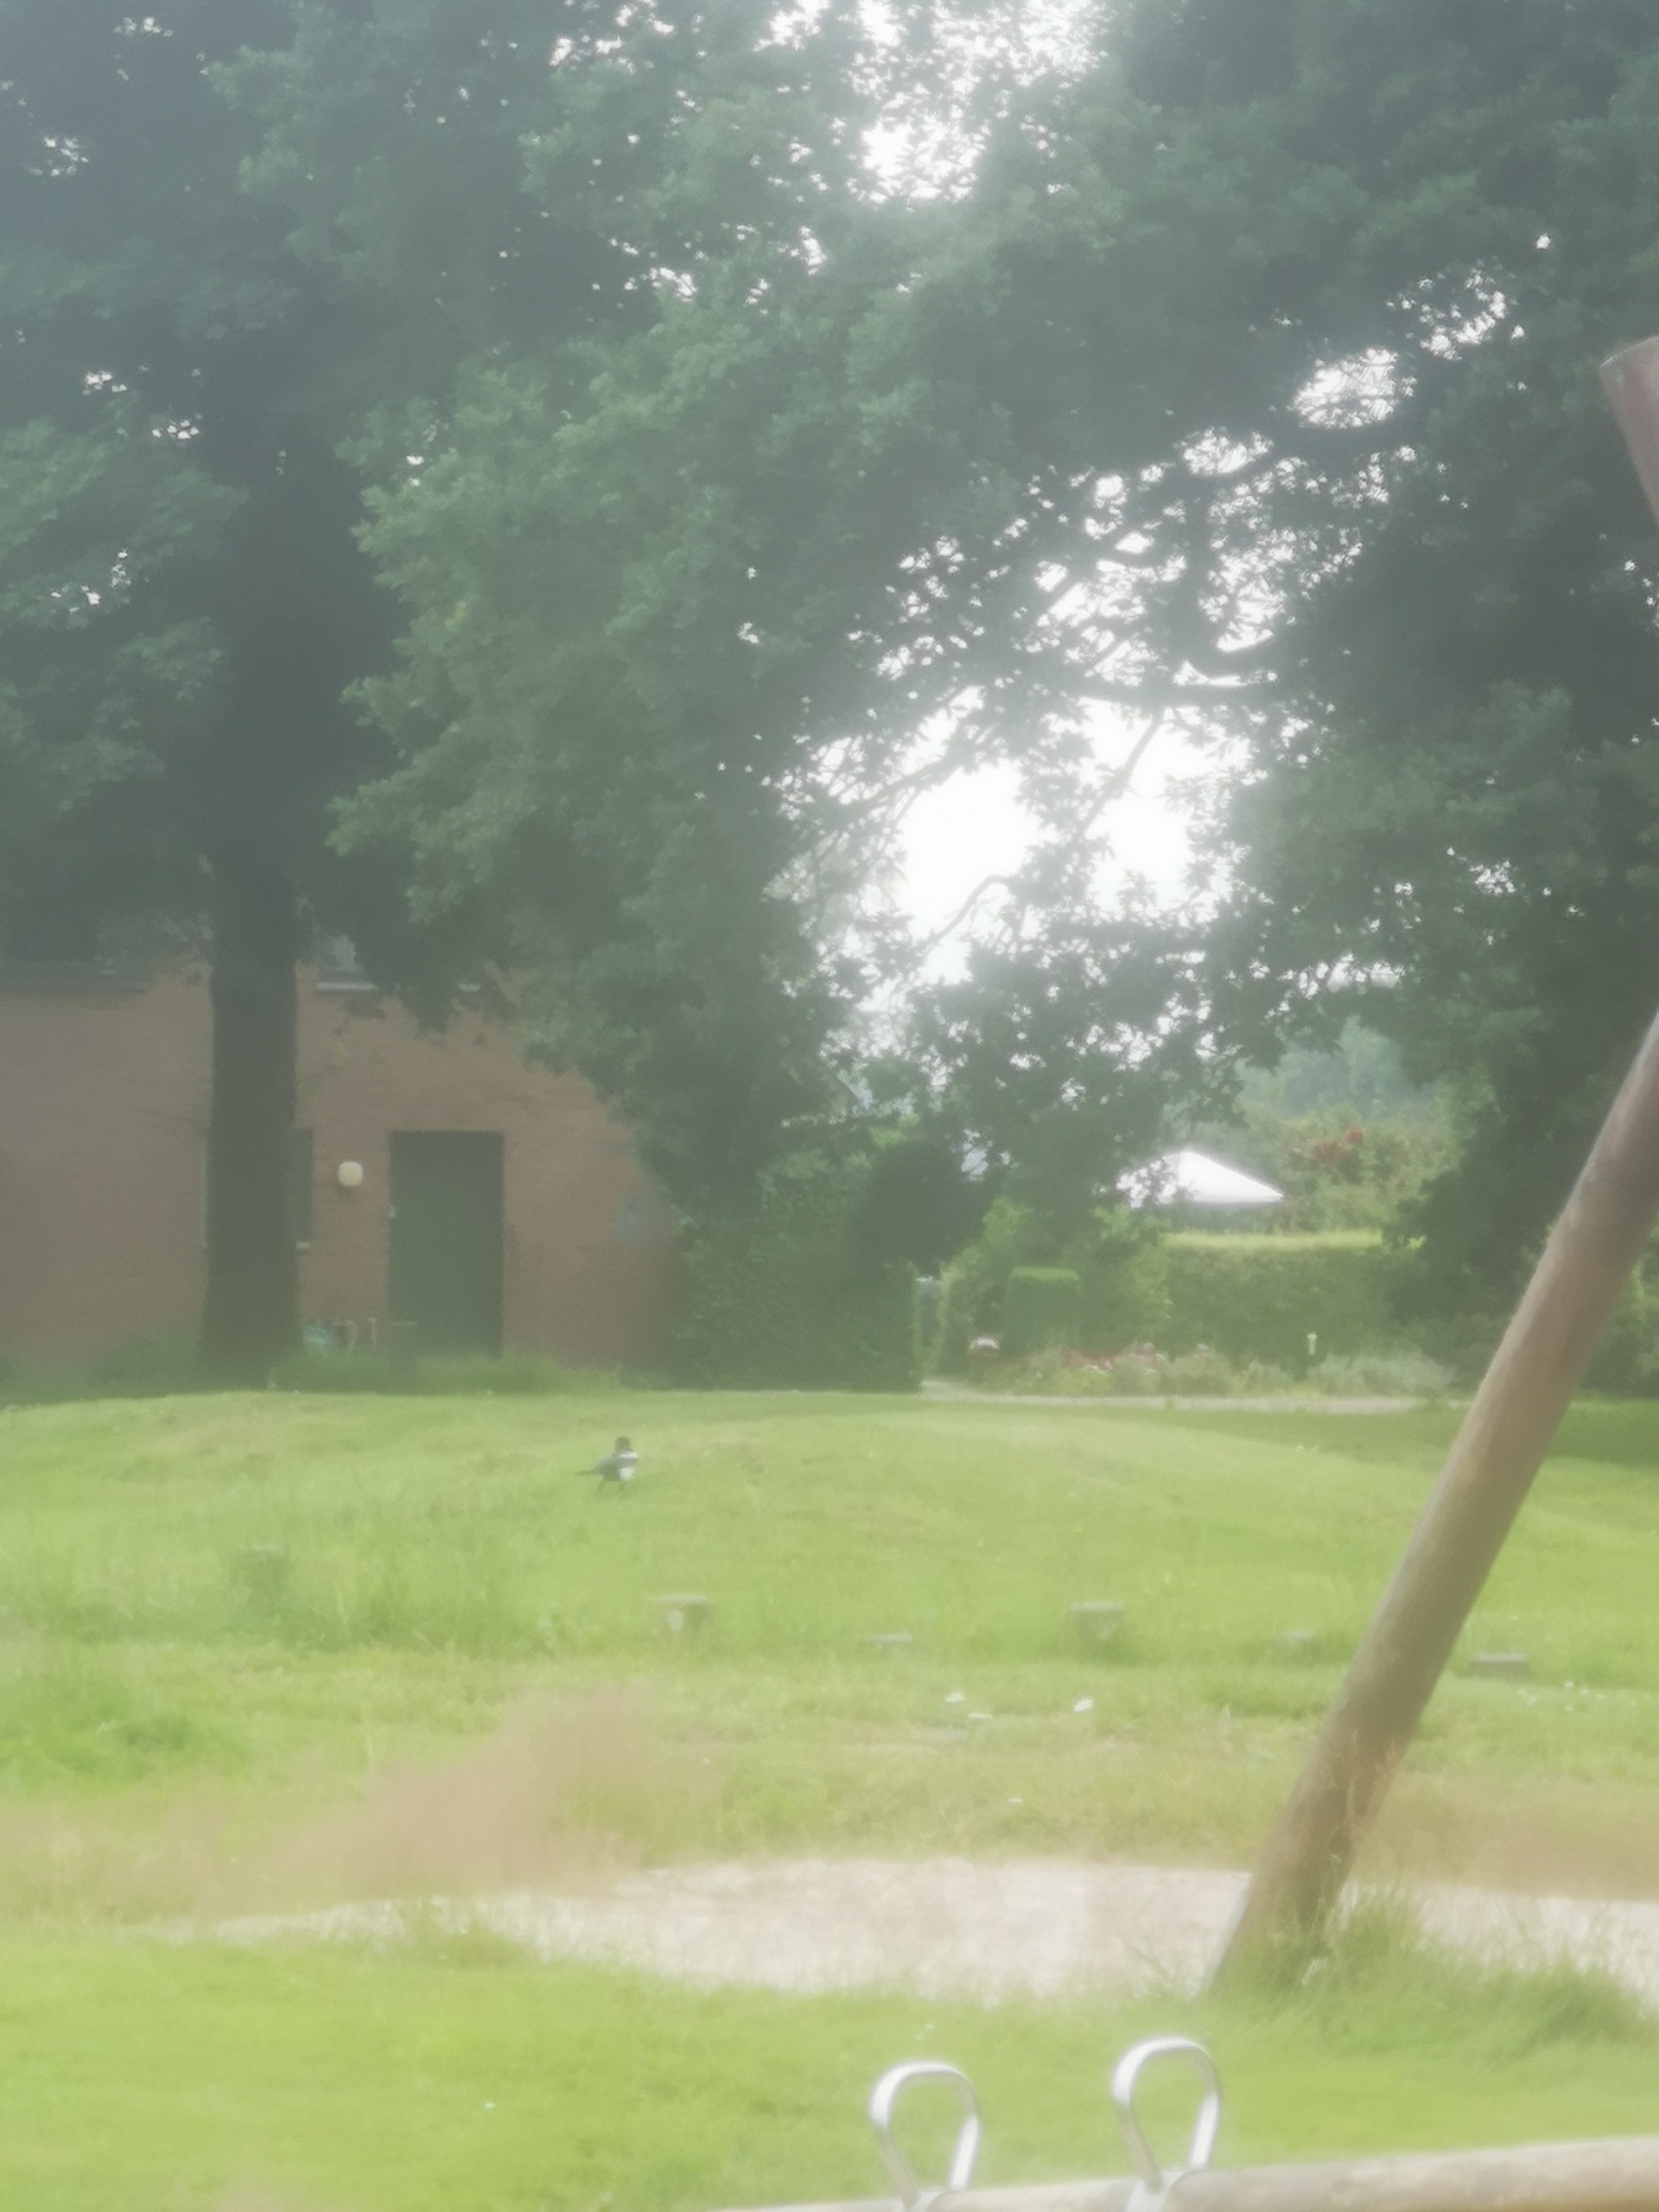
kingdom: Animalia
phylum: Chordata
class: Aves
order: Passeriformes
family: Corvidae
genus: Pica
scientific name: Pica pica
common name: Husskade
